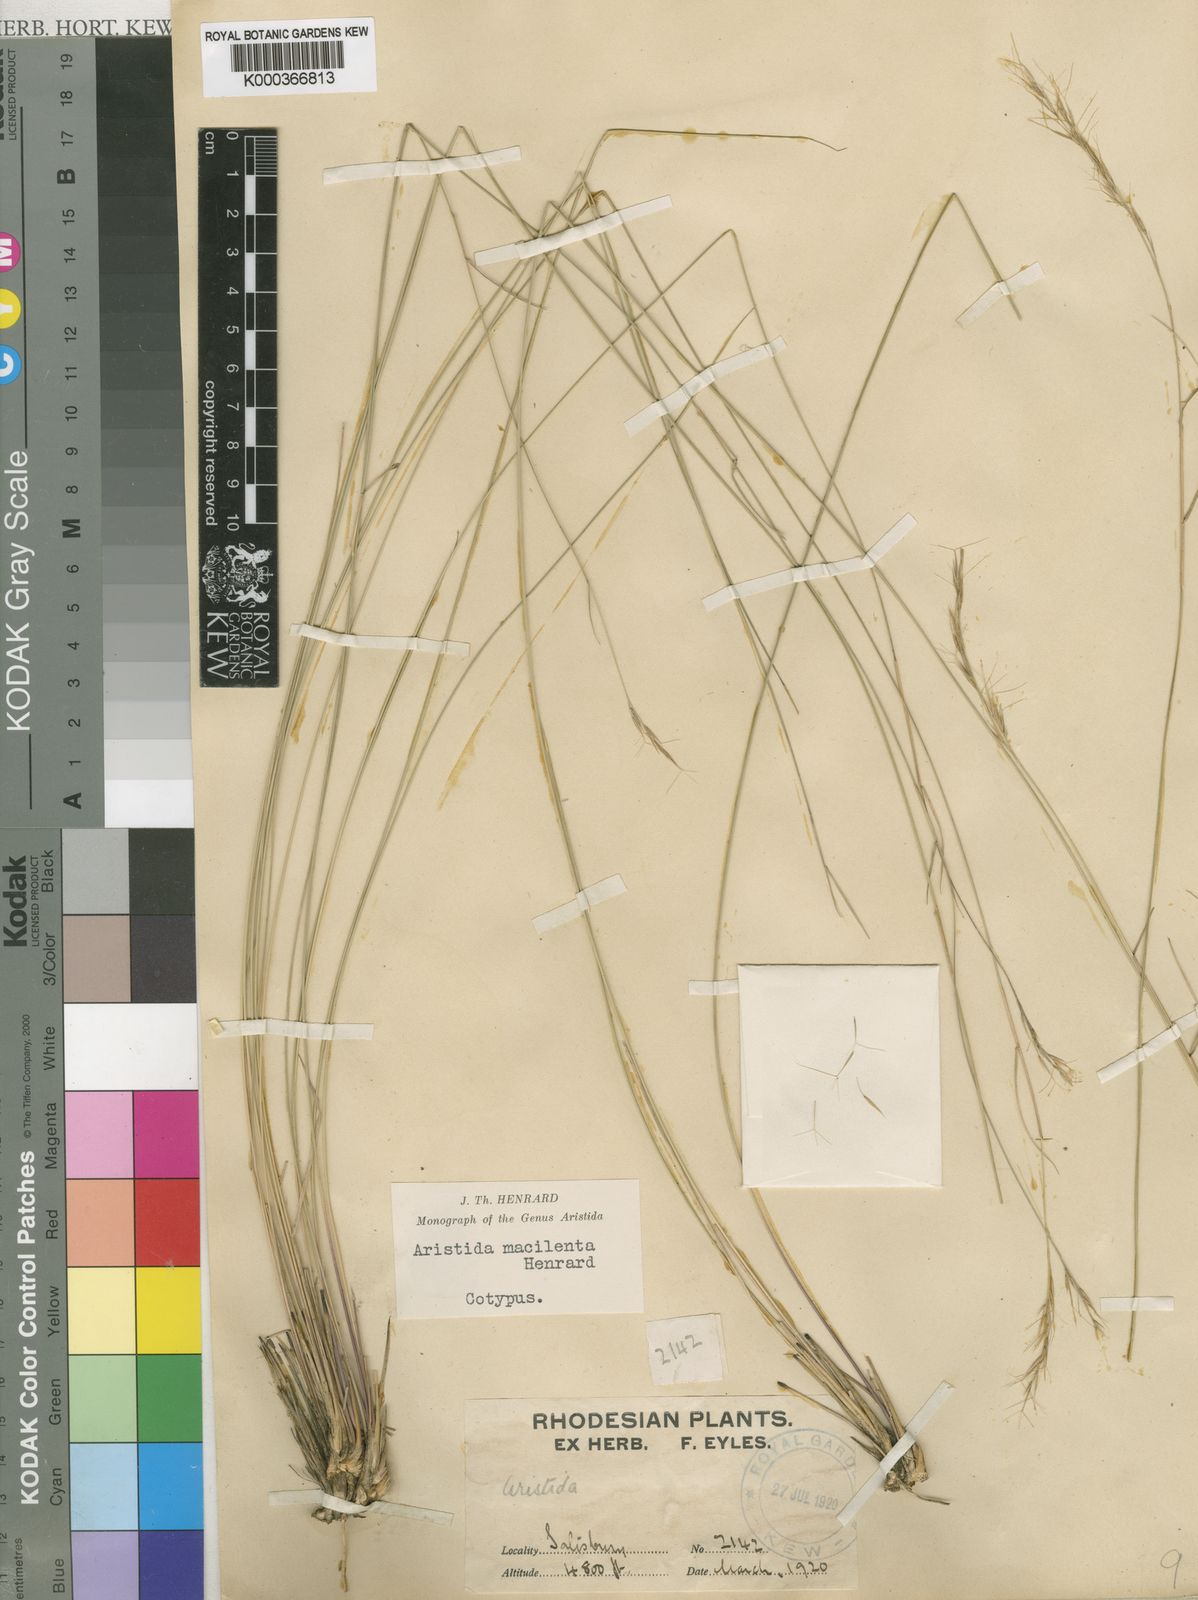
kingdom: Plantae
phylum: Tracheophyta
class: Liliopsida
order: Poales
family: Poaceae
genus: Aristida
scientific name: Aristida junciformis
